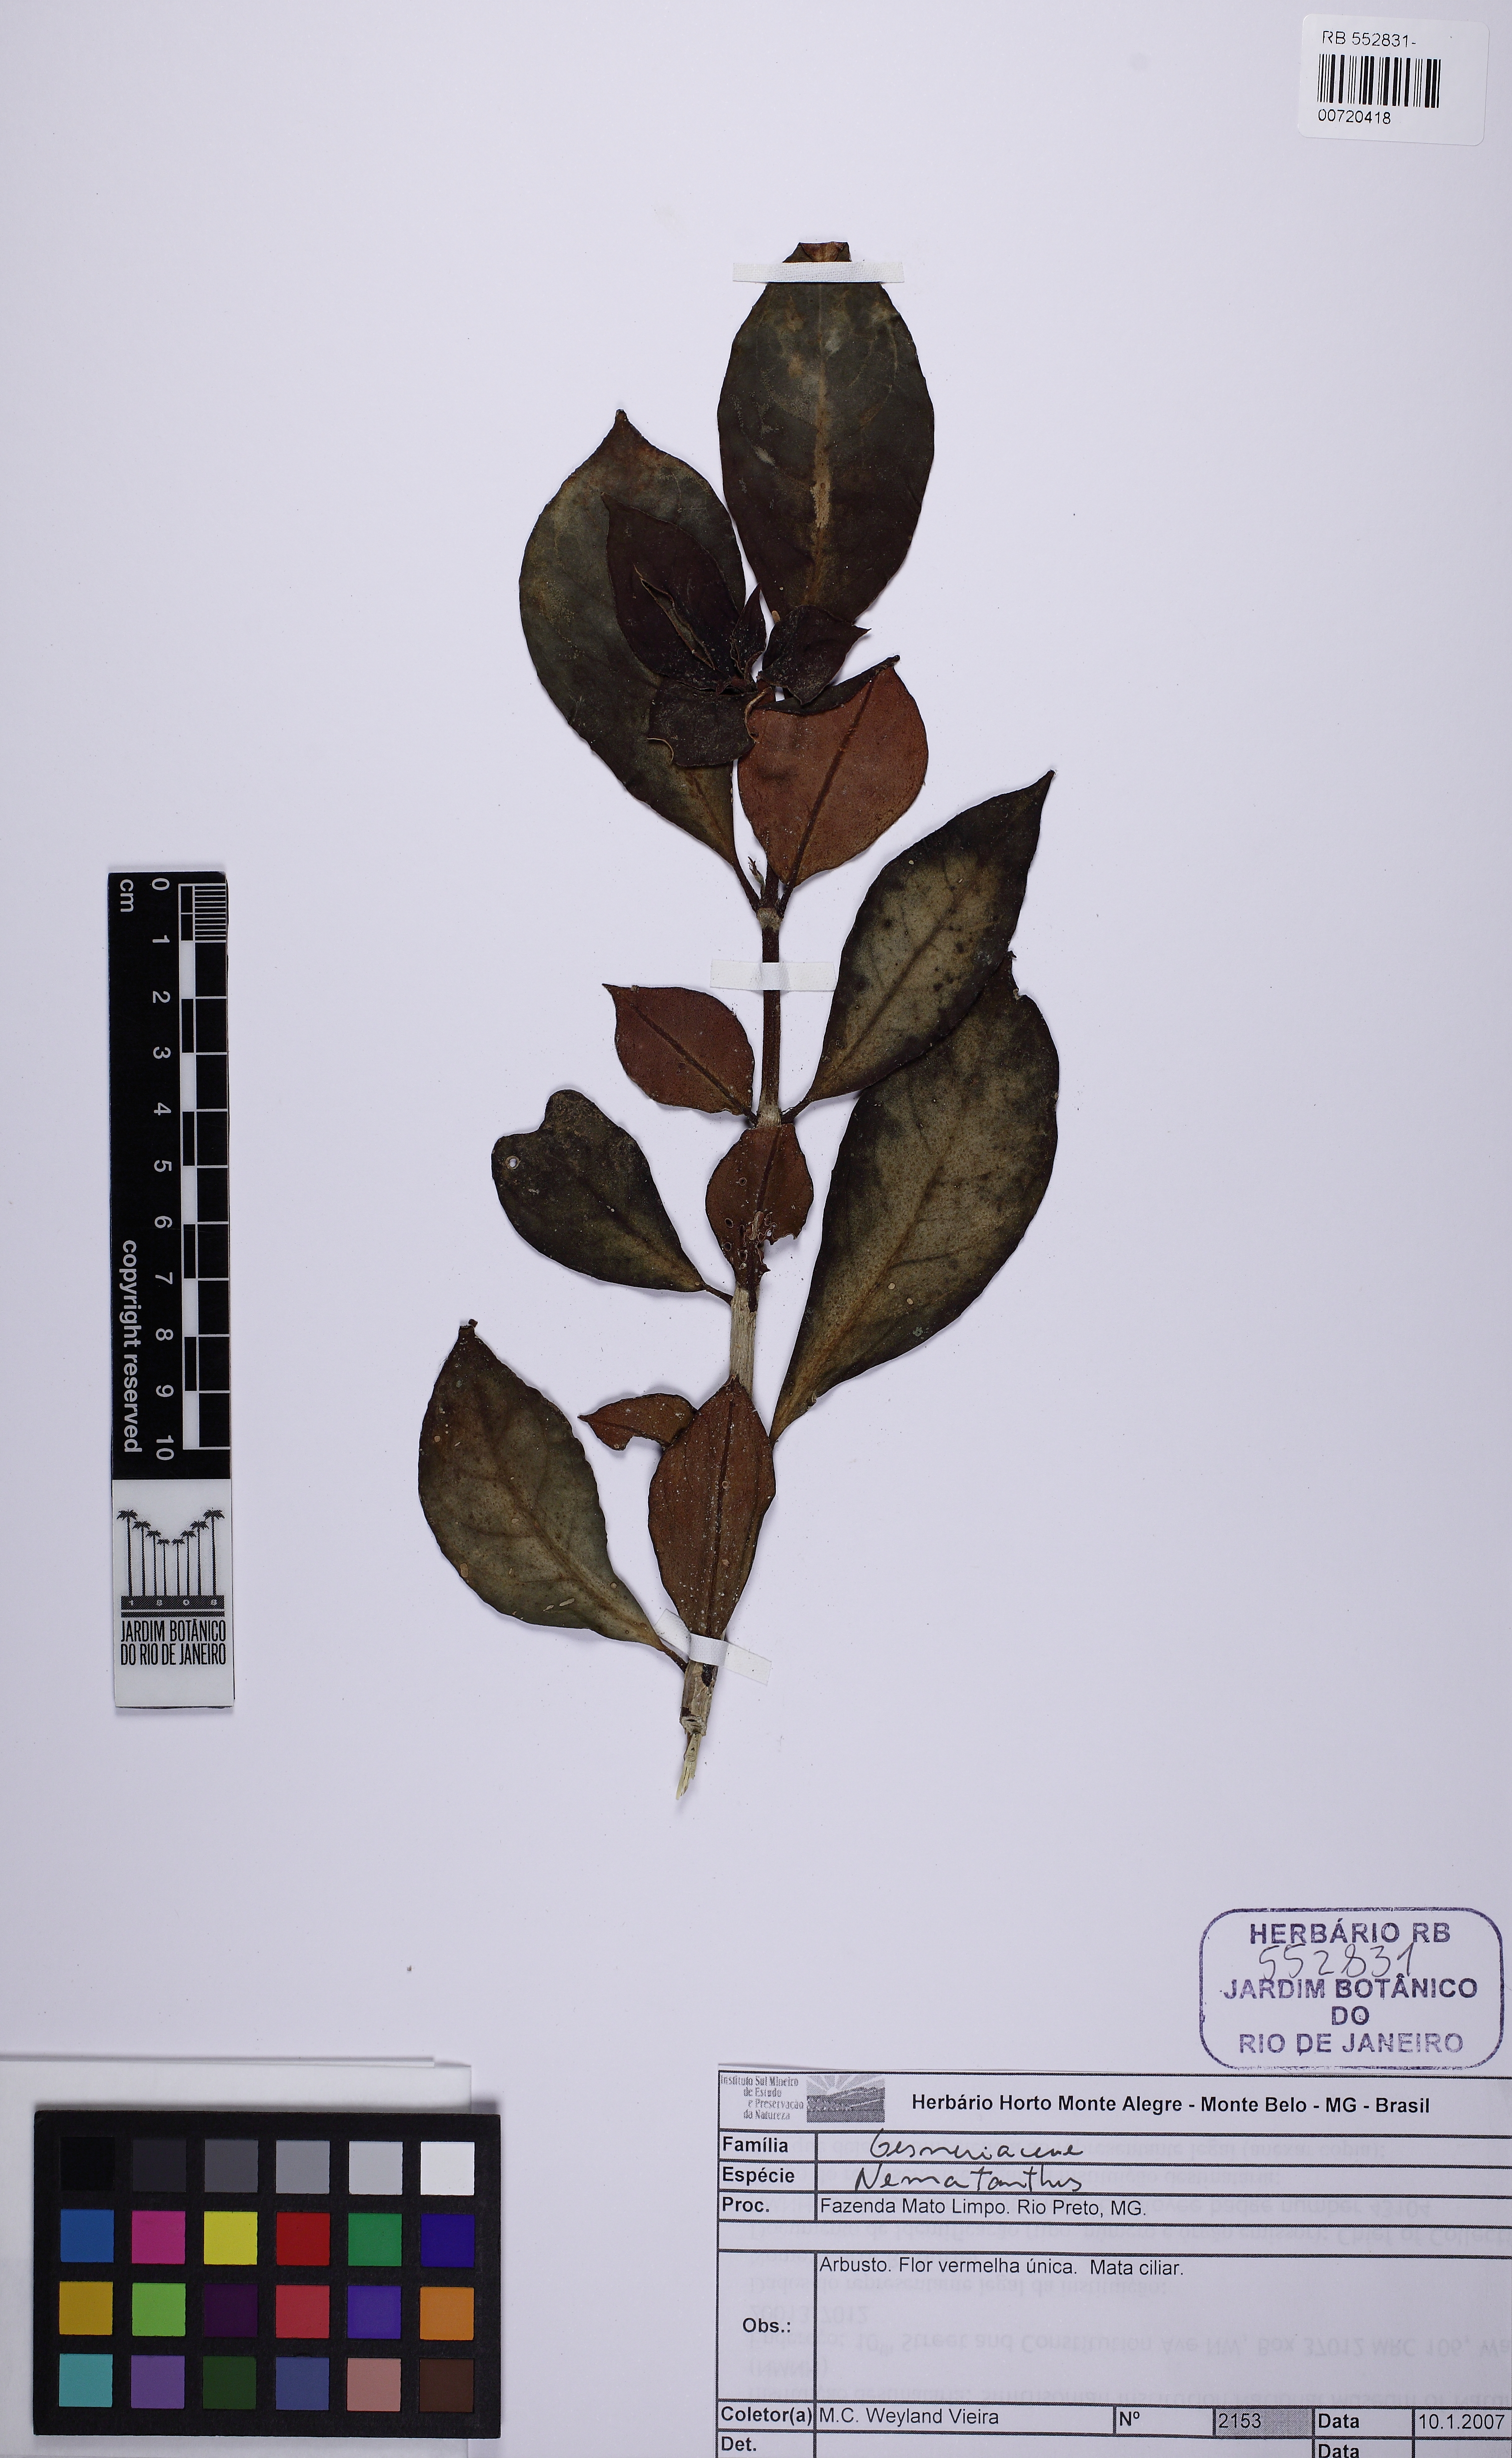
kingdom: Plantae
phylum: Tracheophyta
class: Magnoliopsida
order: Lamiales
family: Gesneriaceae
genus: Nematanthus
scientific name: Nematanthus crassifolius
